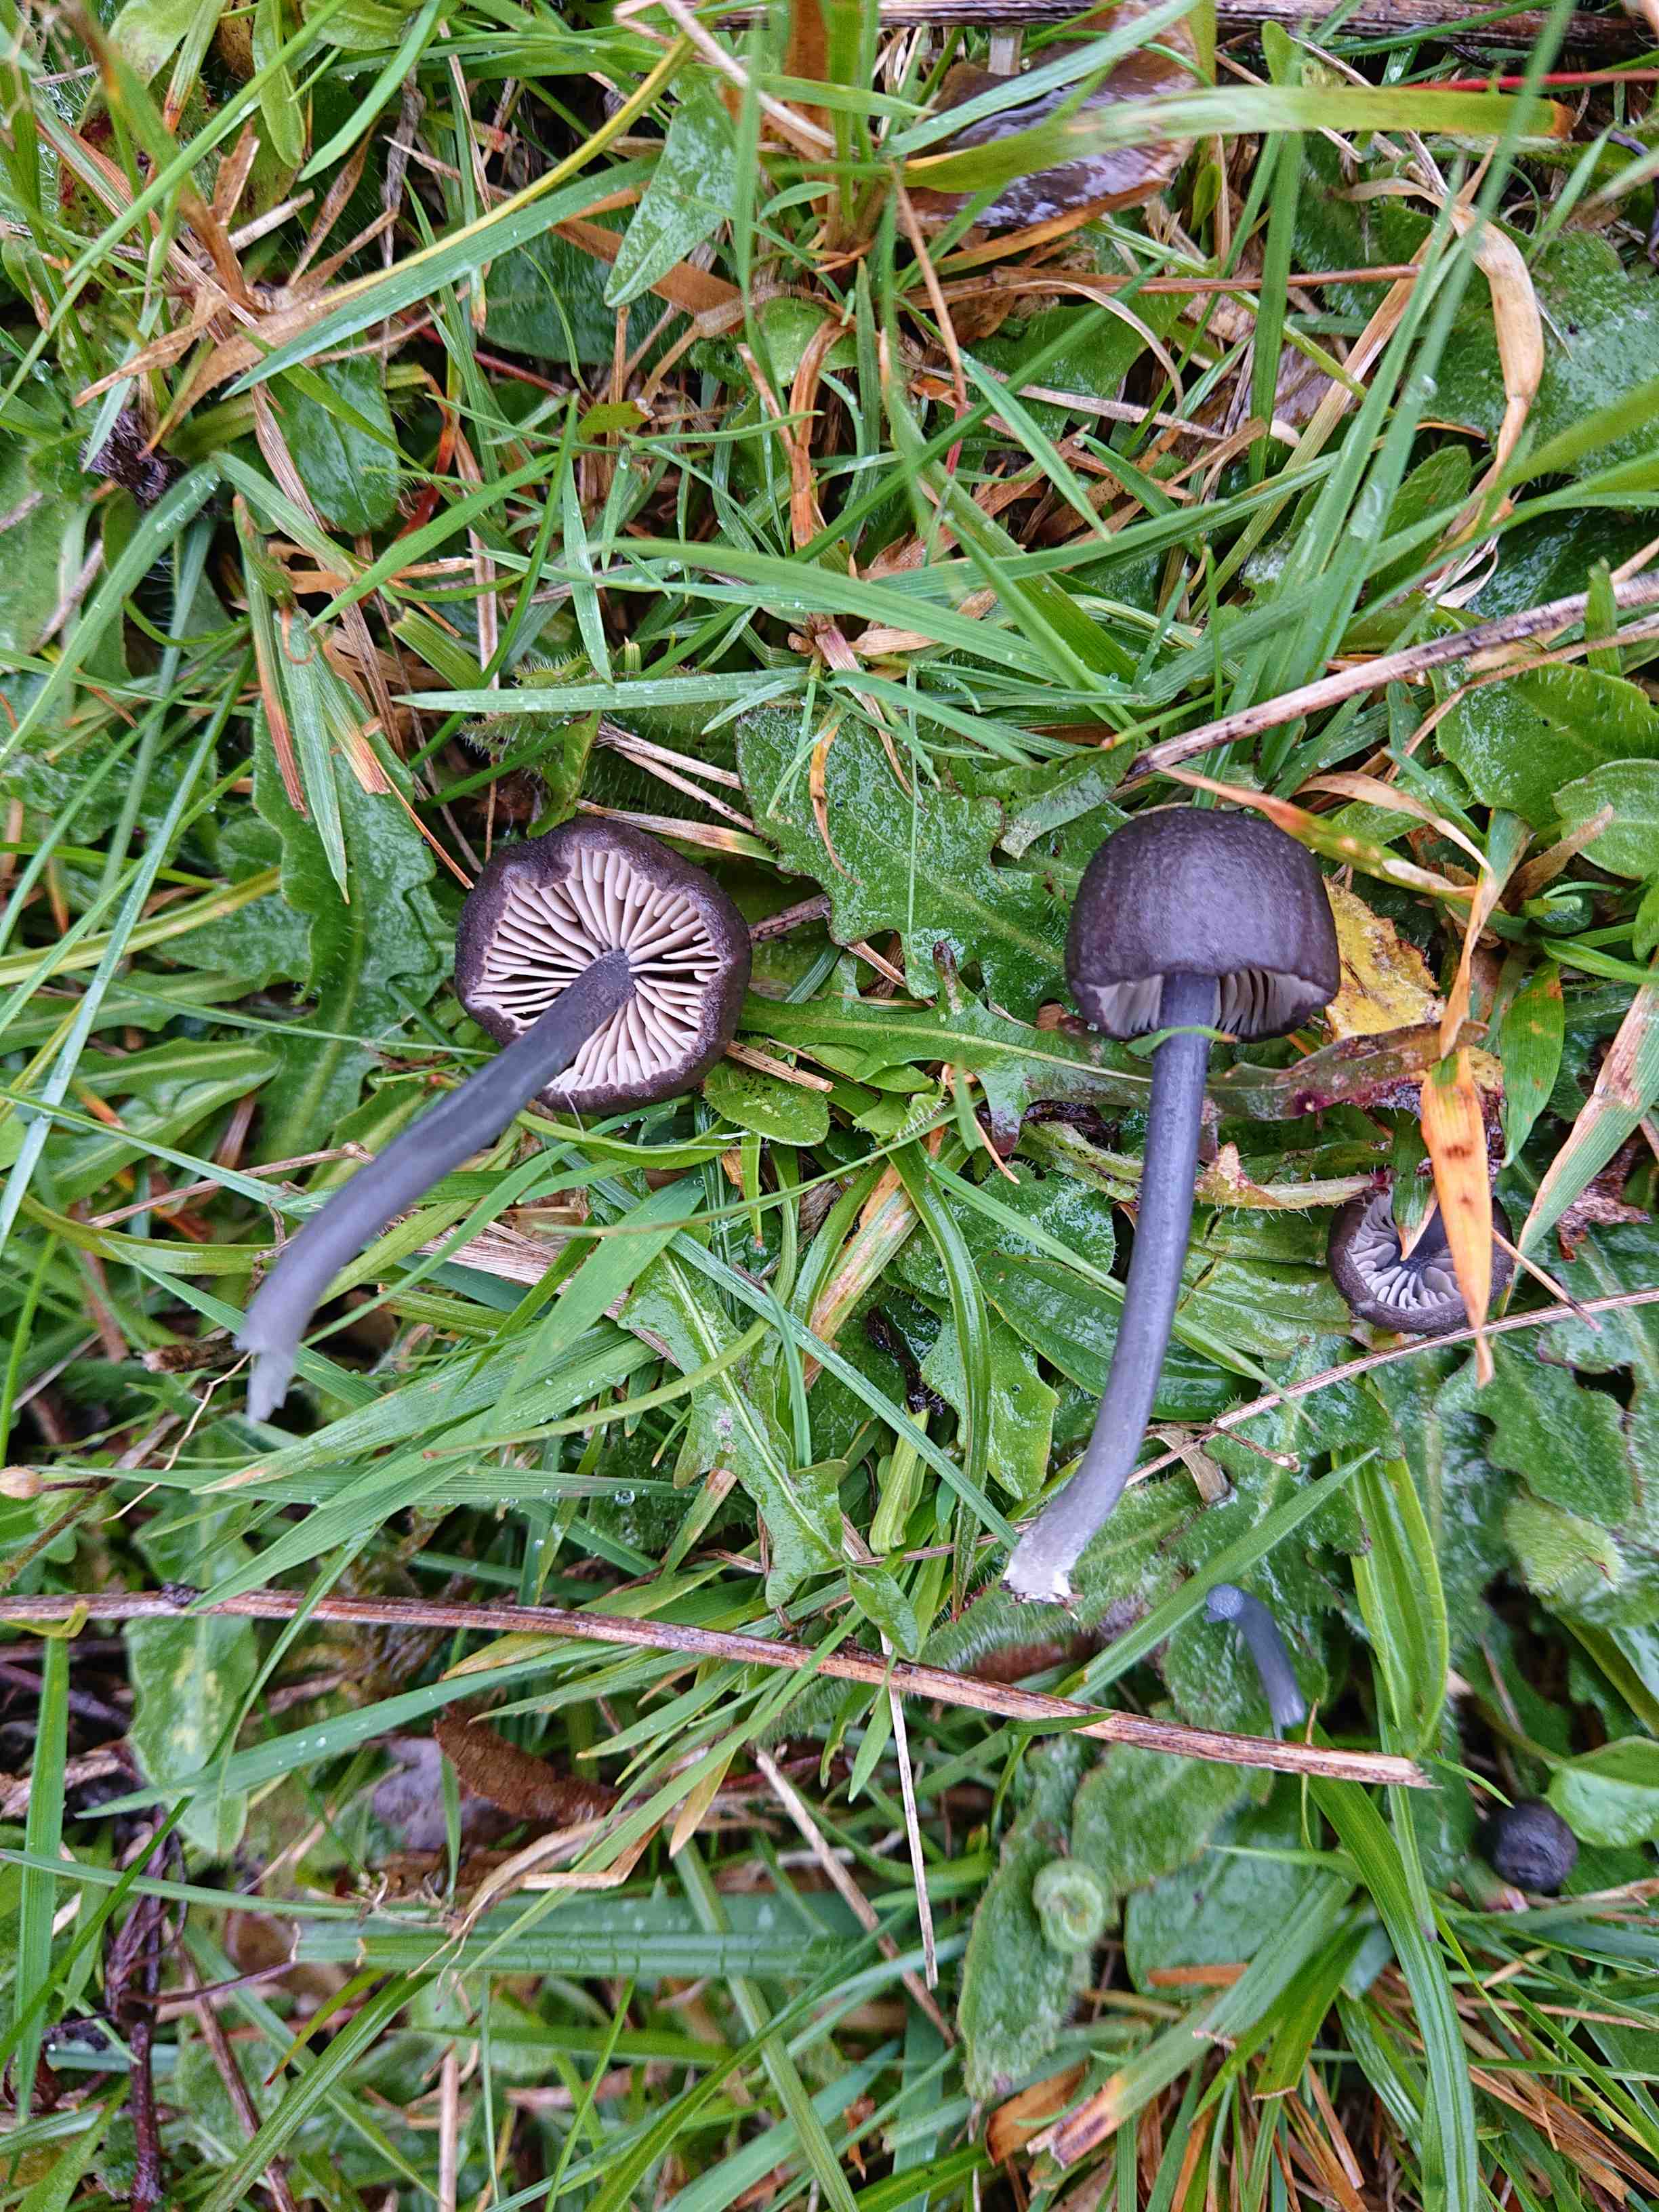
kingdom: Fungi
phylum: Basidiomycota
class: Agaricomycetes
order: Agaricales
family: Entolomataceae
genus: Entoloma
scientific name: Entoloma
